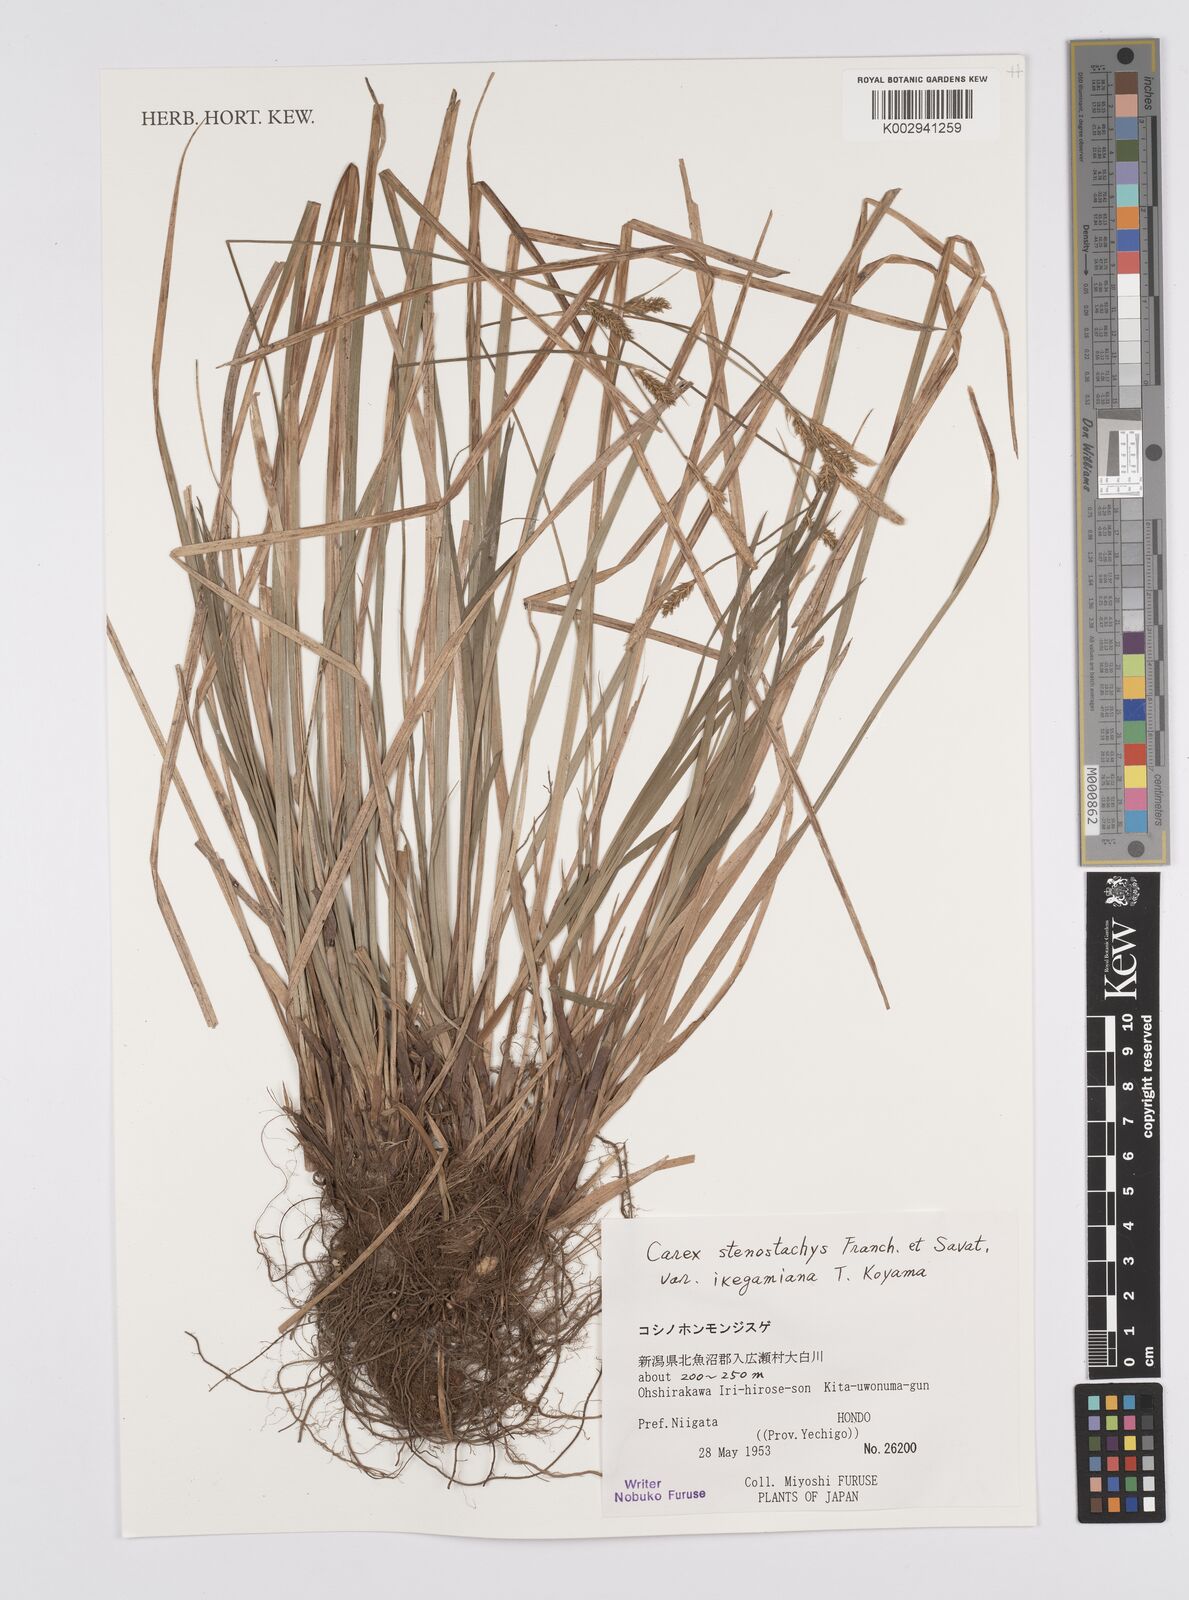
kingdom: Plantae
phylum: Tracheophyta
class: Liliopsida
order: Poales
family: Cyperaceae
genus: Carex
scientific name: Carex pisiformis
